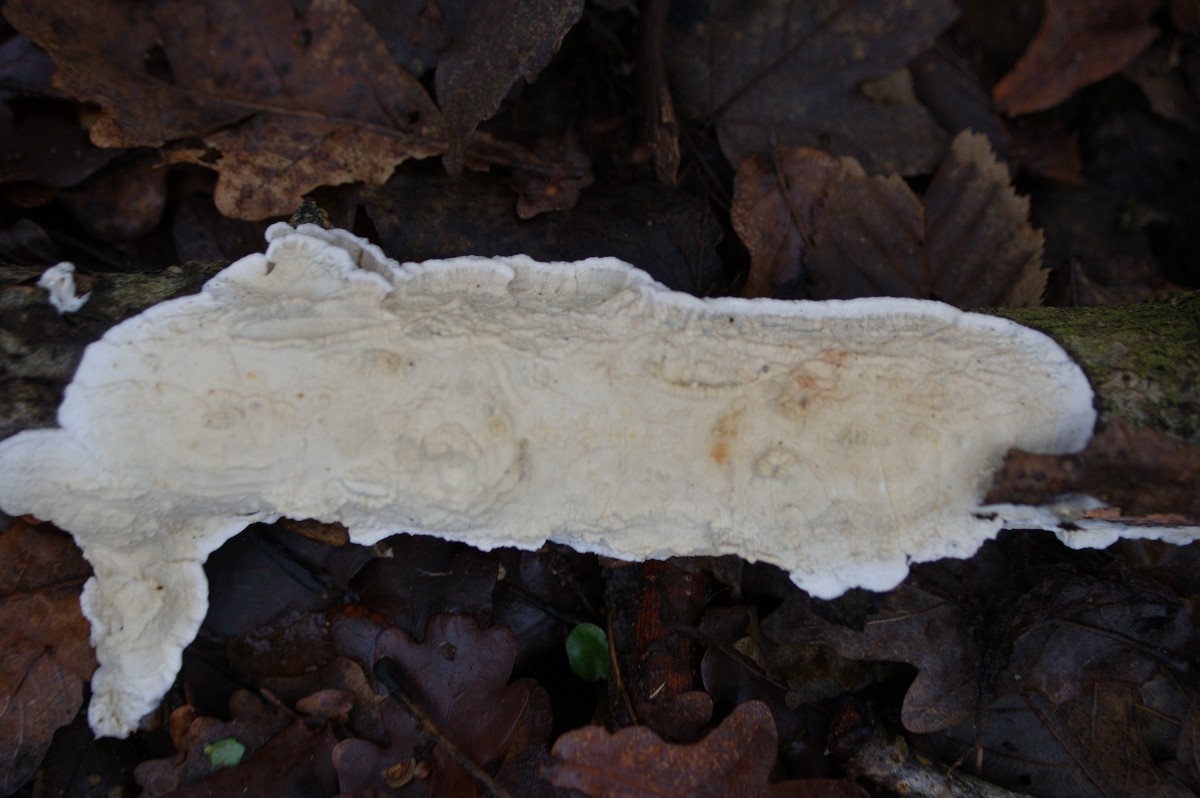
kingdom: Fungi
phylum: Basidiomycota
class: Agaricomycetes
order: Polyporales
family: Irpicaceae
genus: Byssomerulius
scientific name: Byssomerulius corium
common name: læder-åresvamp
